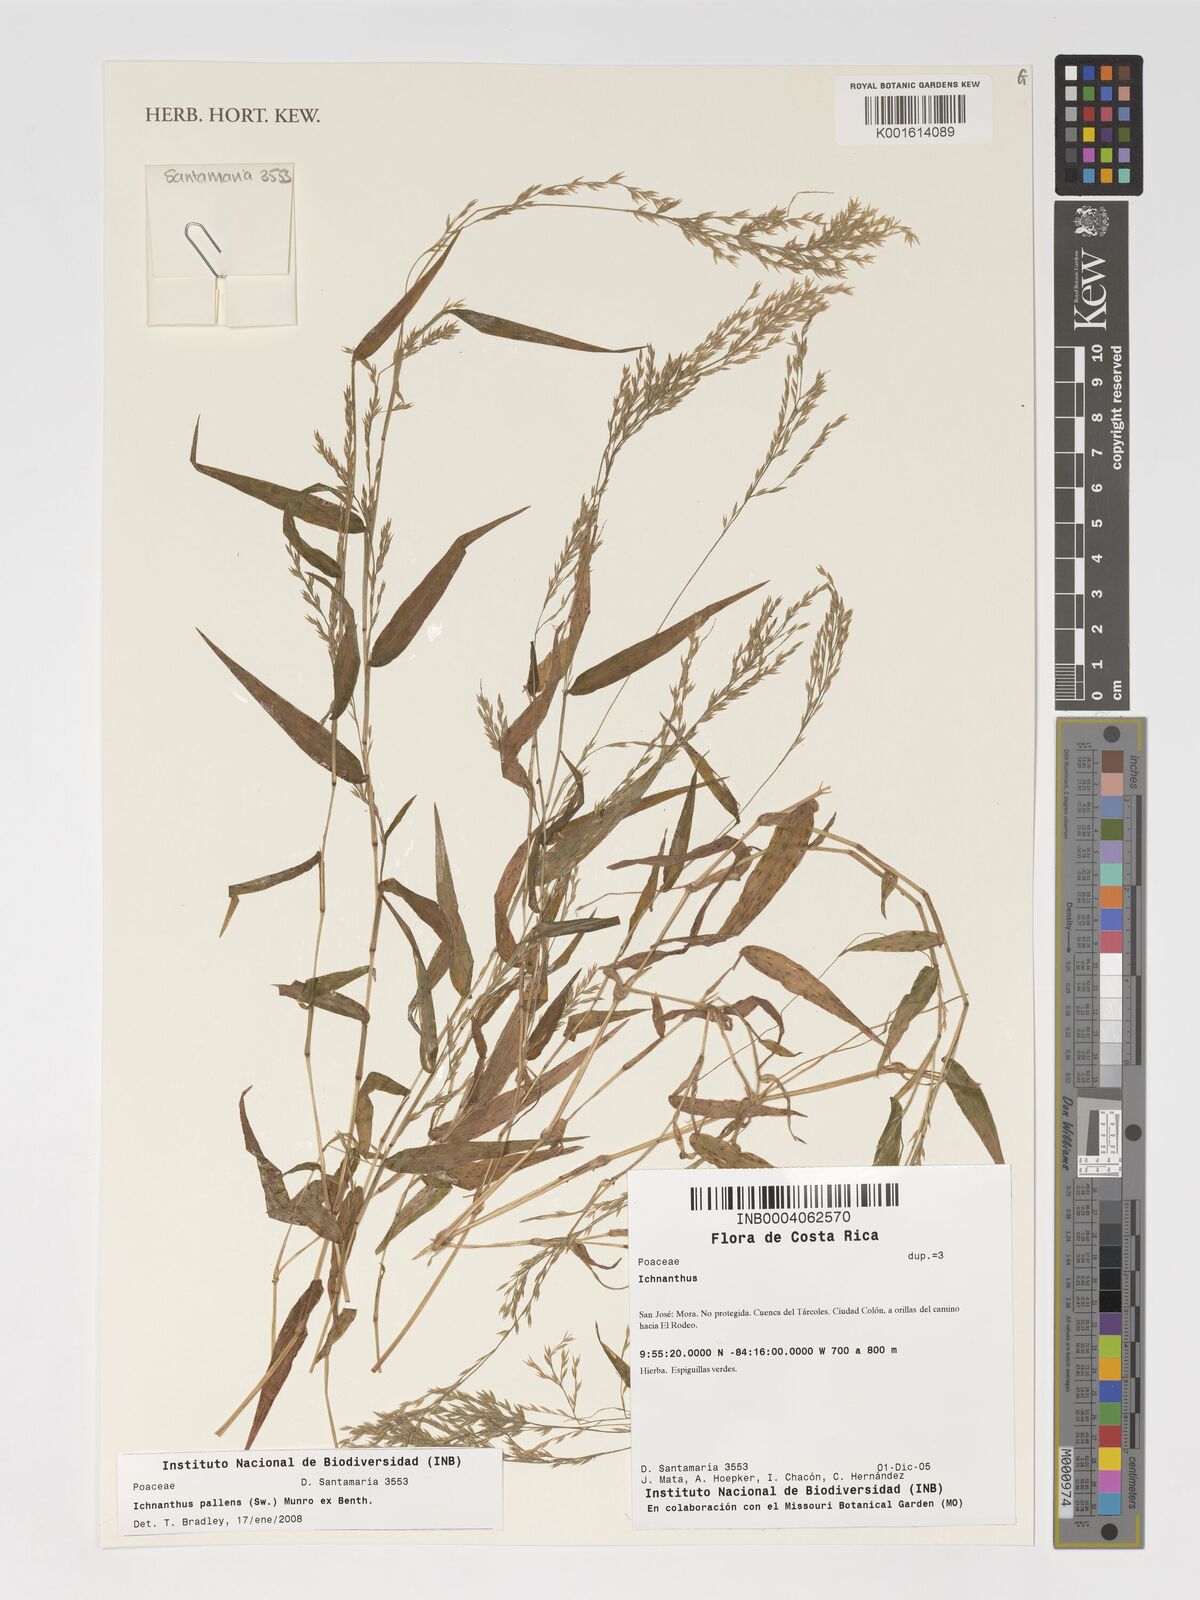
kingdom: Plantae
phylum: Tracheophyta
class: Liliopsida
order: Poales
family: Poaceae
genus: Ichnanthus
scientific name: Ichnanthus pallens
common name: Water grass
